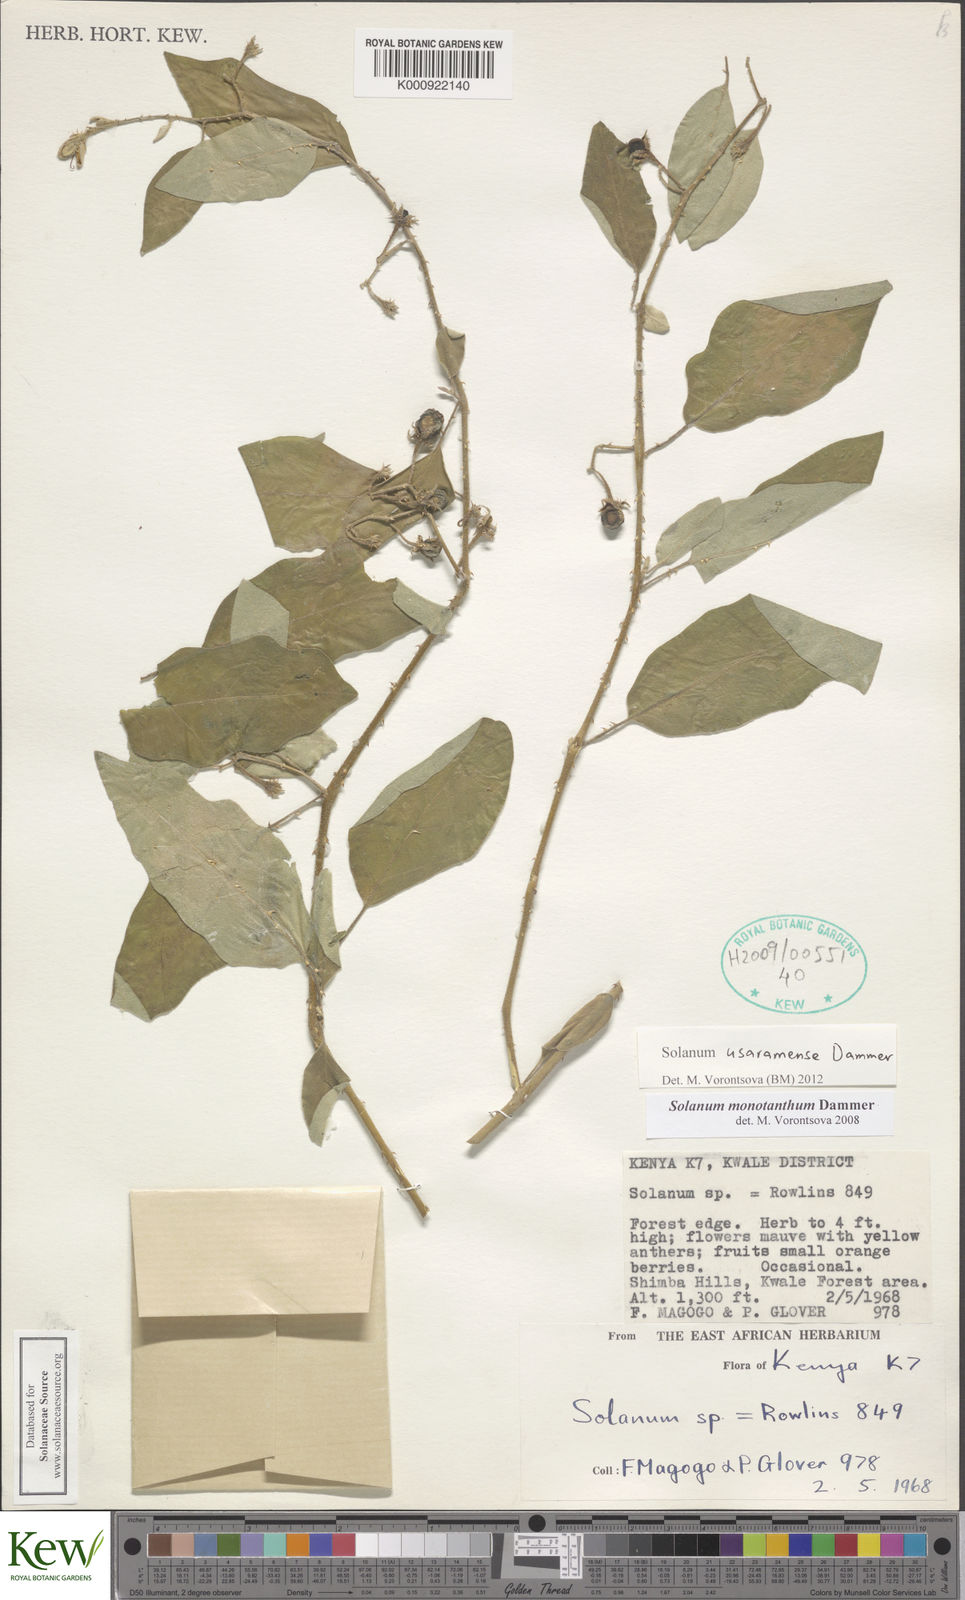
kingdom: Plantae
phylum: Tracheophyta
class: Magnoliopsida
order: Solanales
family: Solanaceae
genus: Solanum
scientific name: Solanum usaramense
